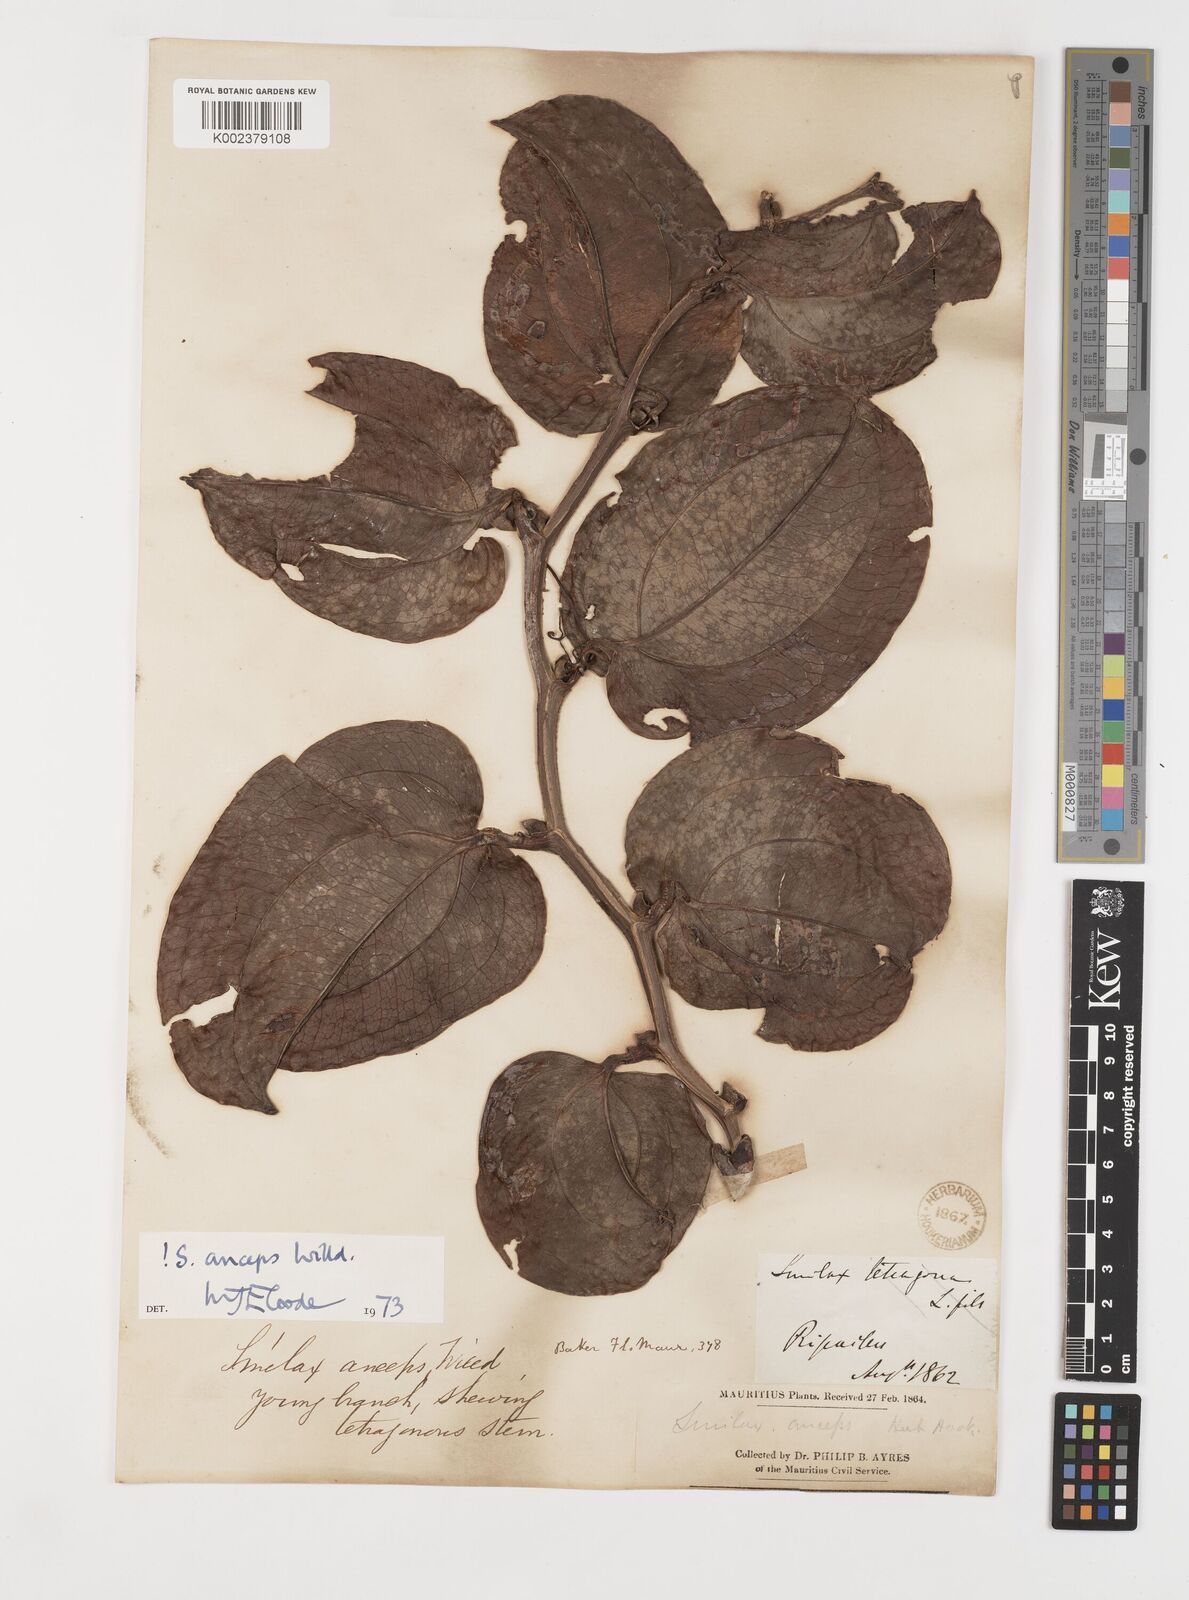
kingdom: Plantae
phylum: Tracheophyta
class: Liliopsida
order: Liliales
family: Smilacaceae
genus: Smilax
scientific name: Smilax anceps
